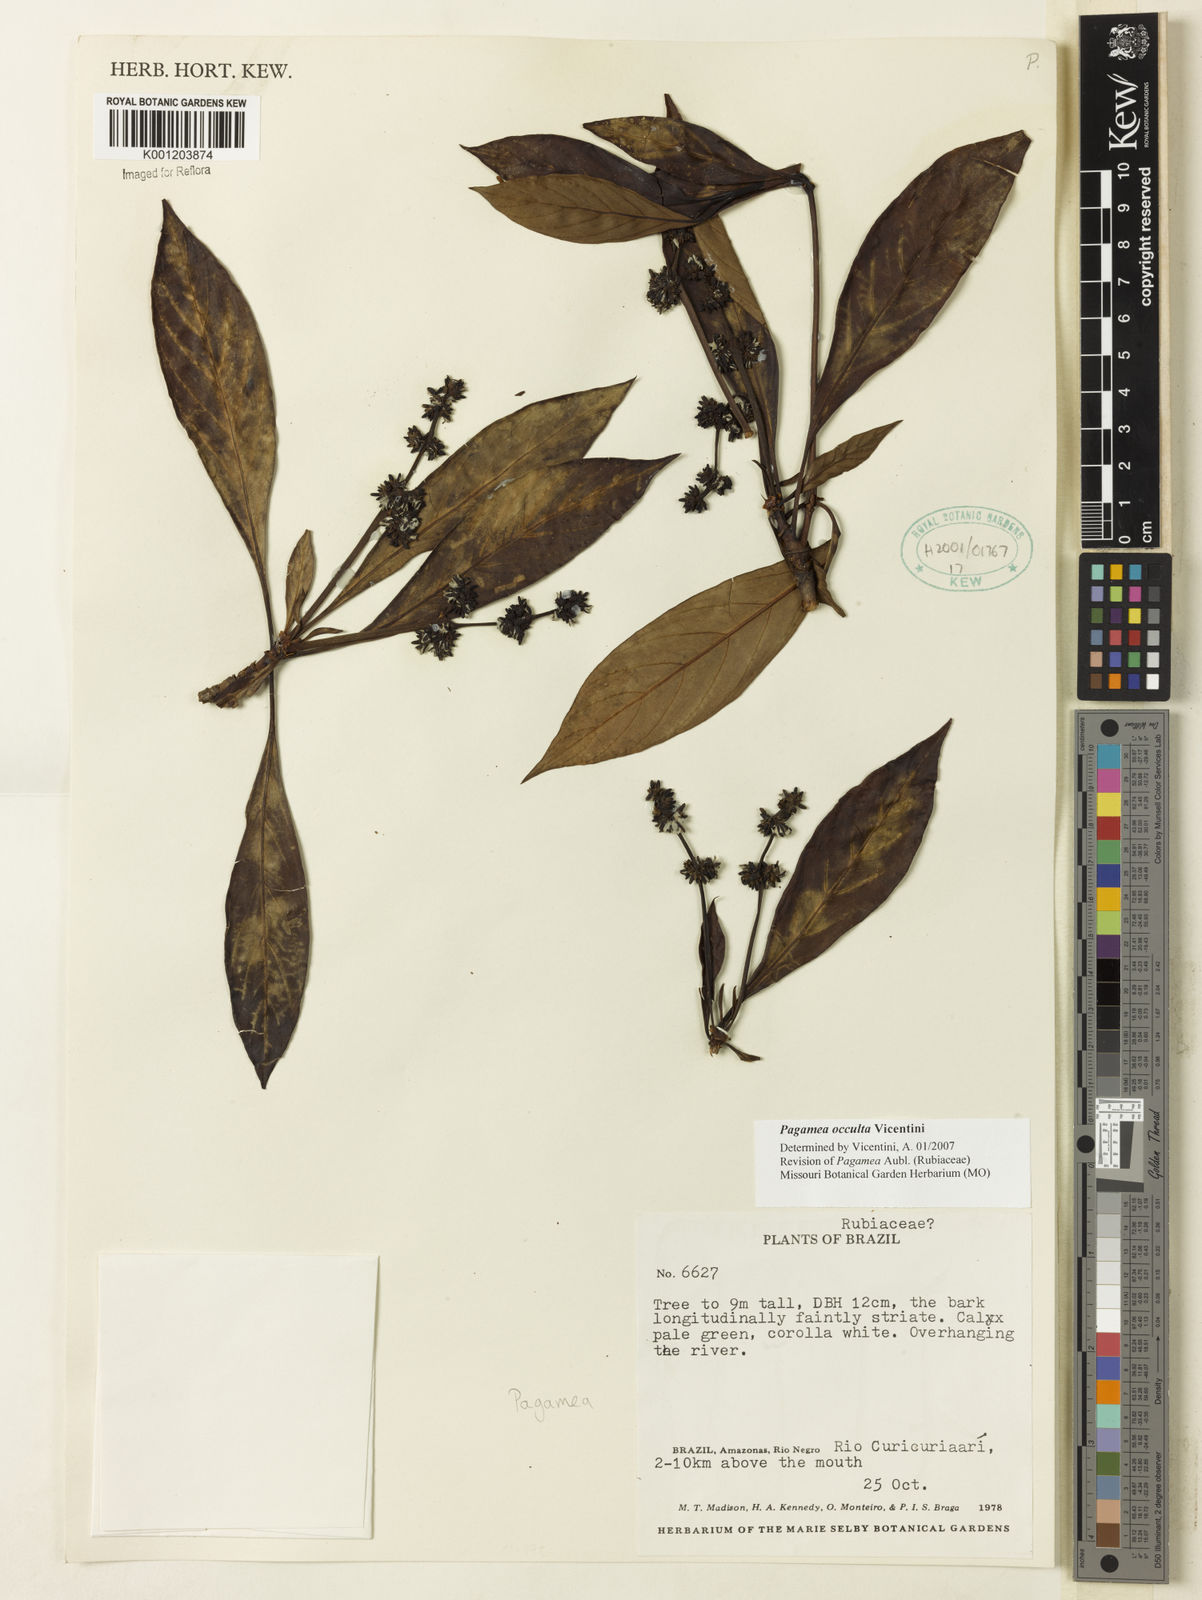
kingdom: Plantae
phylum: Tracheophyta
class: Magnoliopsida
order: Gentianales
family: Rubiaceae
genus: Pagamea
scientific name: Pagamea
